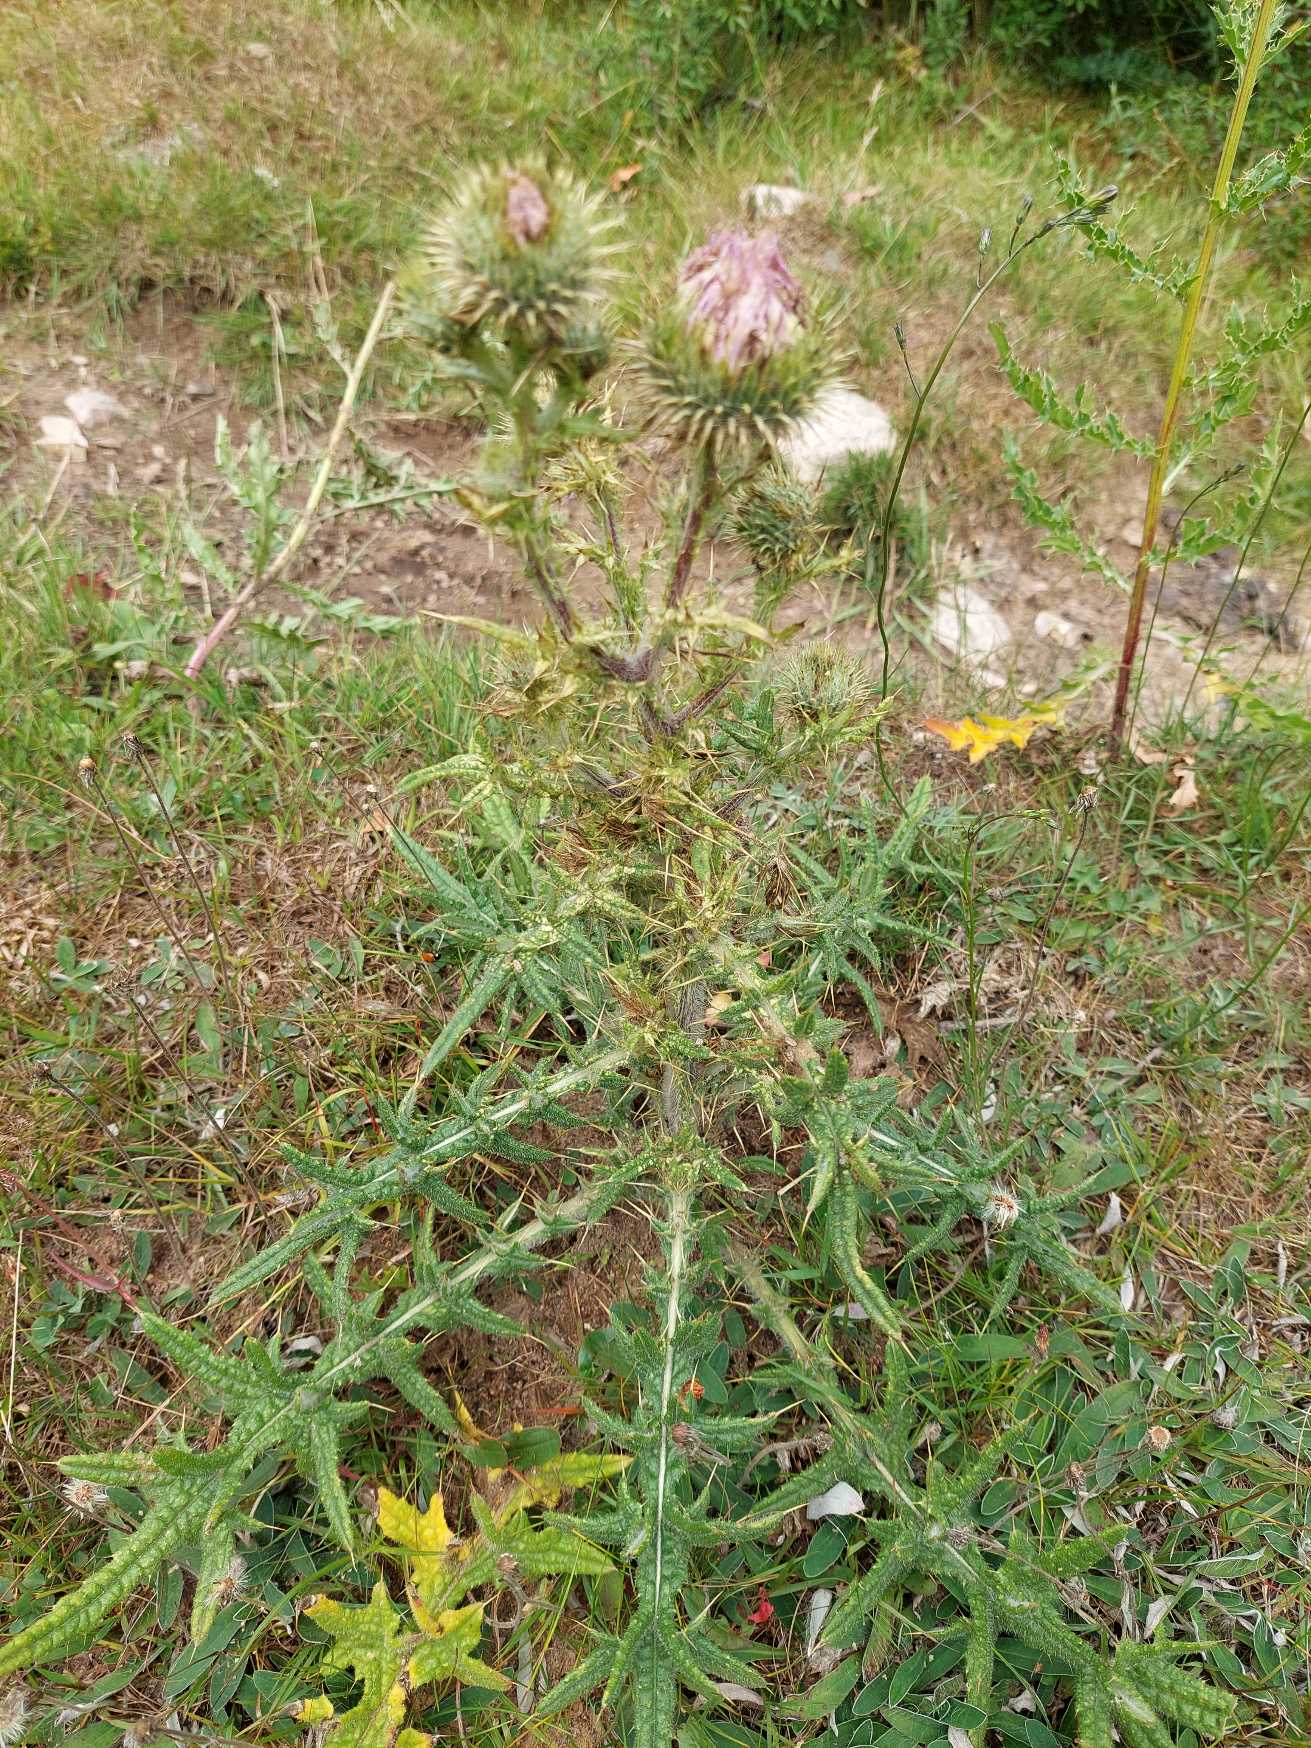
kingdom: Plantae
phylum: Tracheophyta
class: Magnoliopsida
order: Asterales
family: Asteraceae
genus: Cirsium
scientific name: Cirsium vulgare
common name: Horse-tidsel
